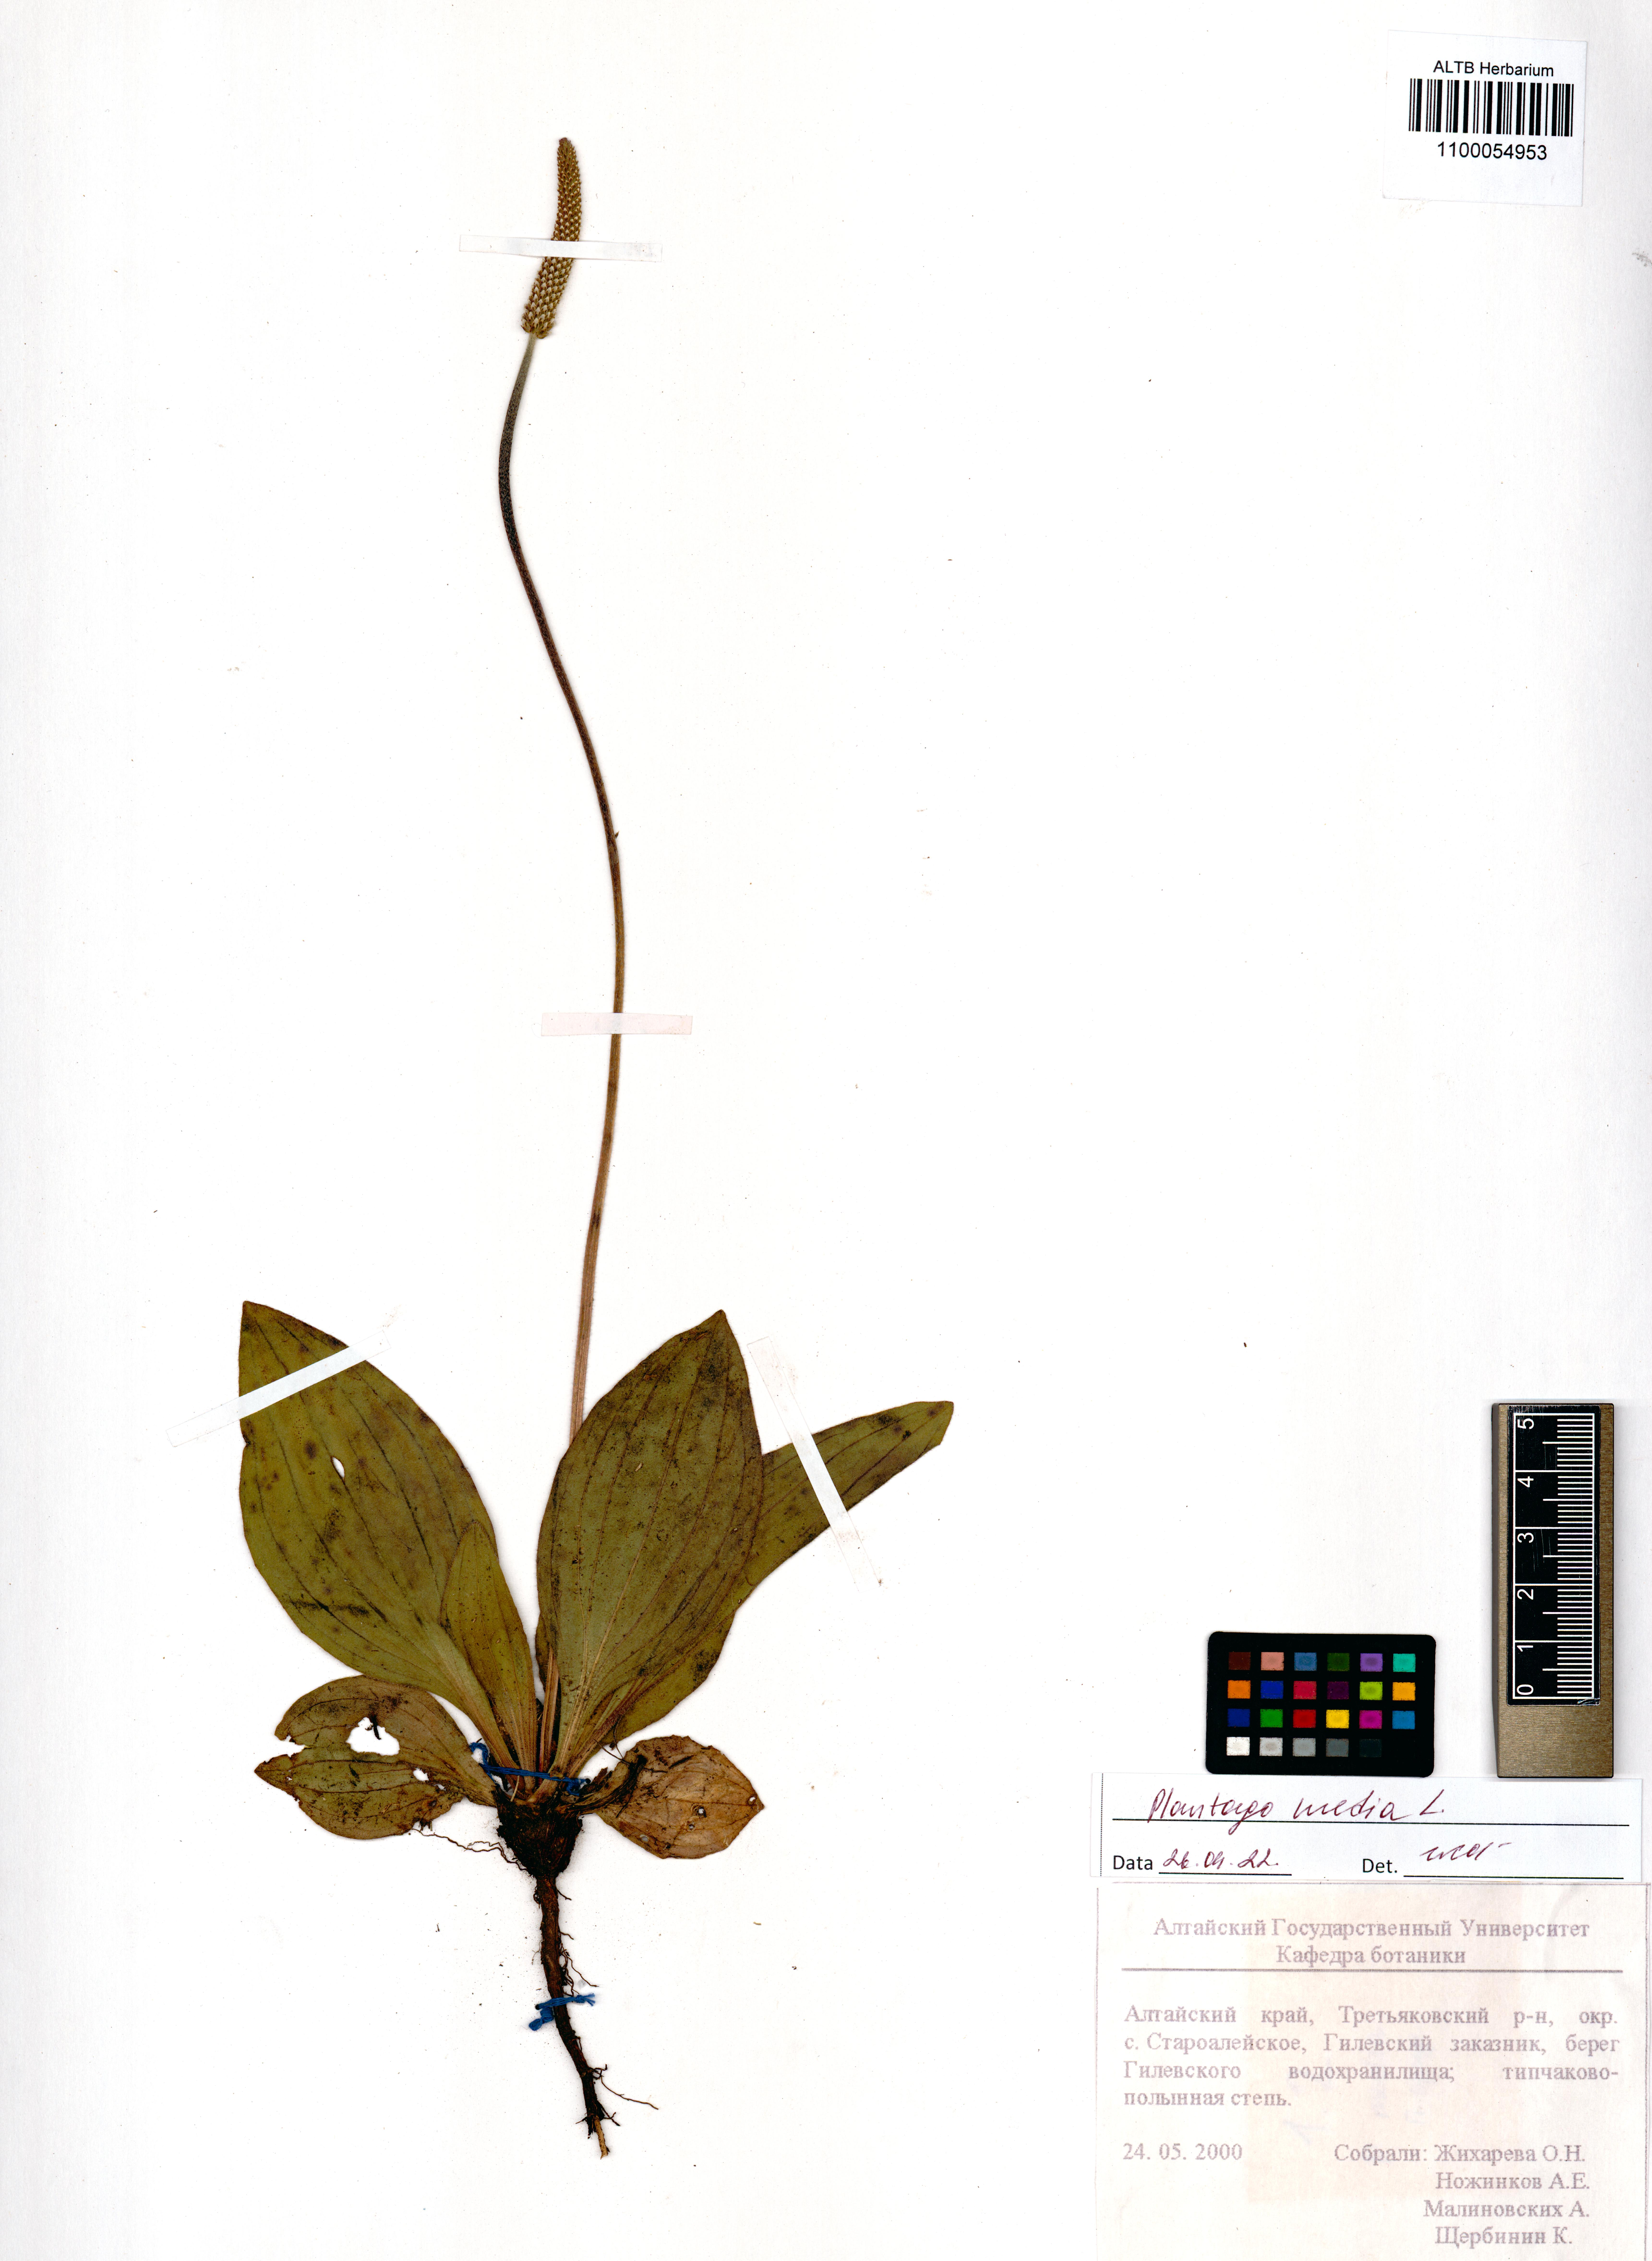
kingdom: Plantae
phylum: Tracheophyta
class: Magnoliopsida
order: Lamiales
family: Plantaginaceae
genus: Plantago
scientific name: Plantago media
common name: Hoary plantain
